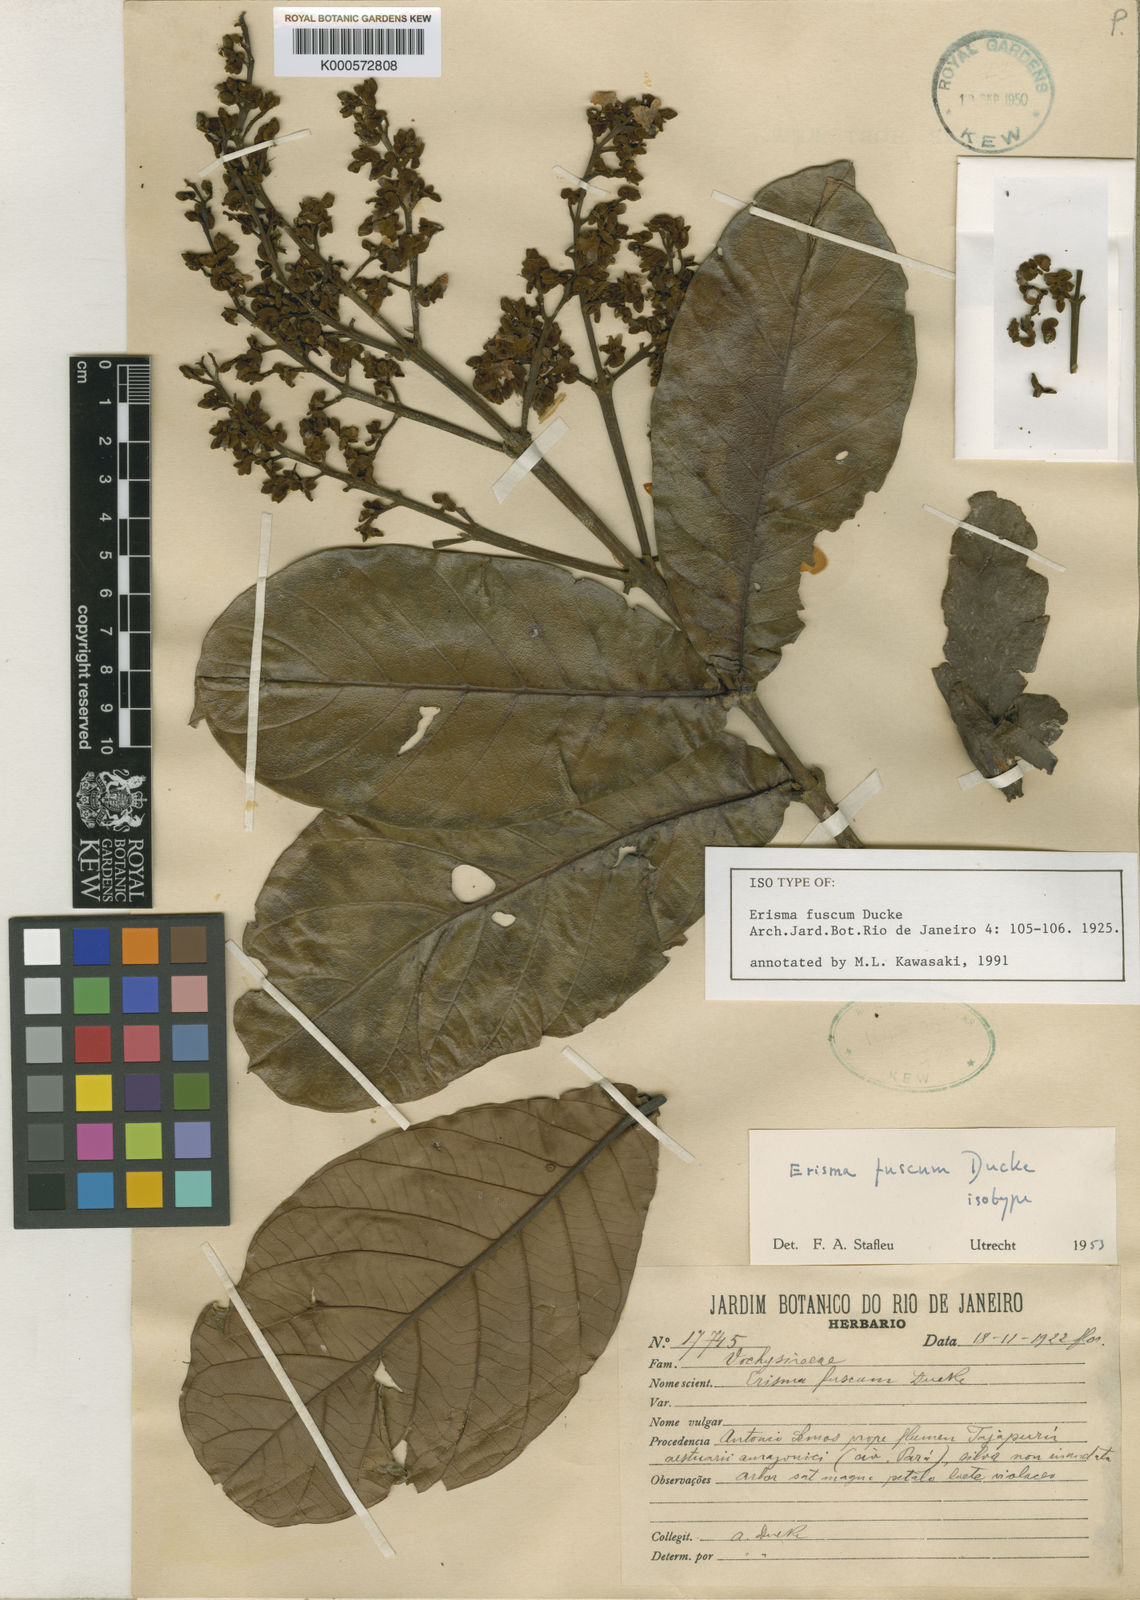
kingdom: Plantae
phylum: Tracheophyta
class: Magnoliopsida
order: Myrtales
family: Vochysiaceae
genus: Erisma
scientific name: Erisma fuscum
